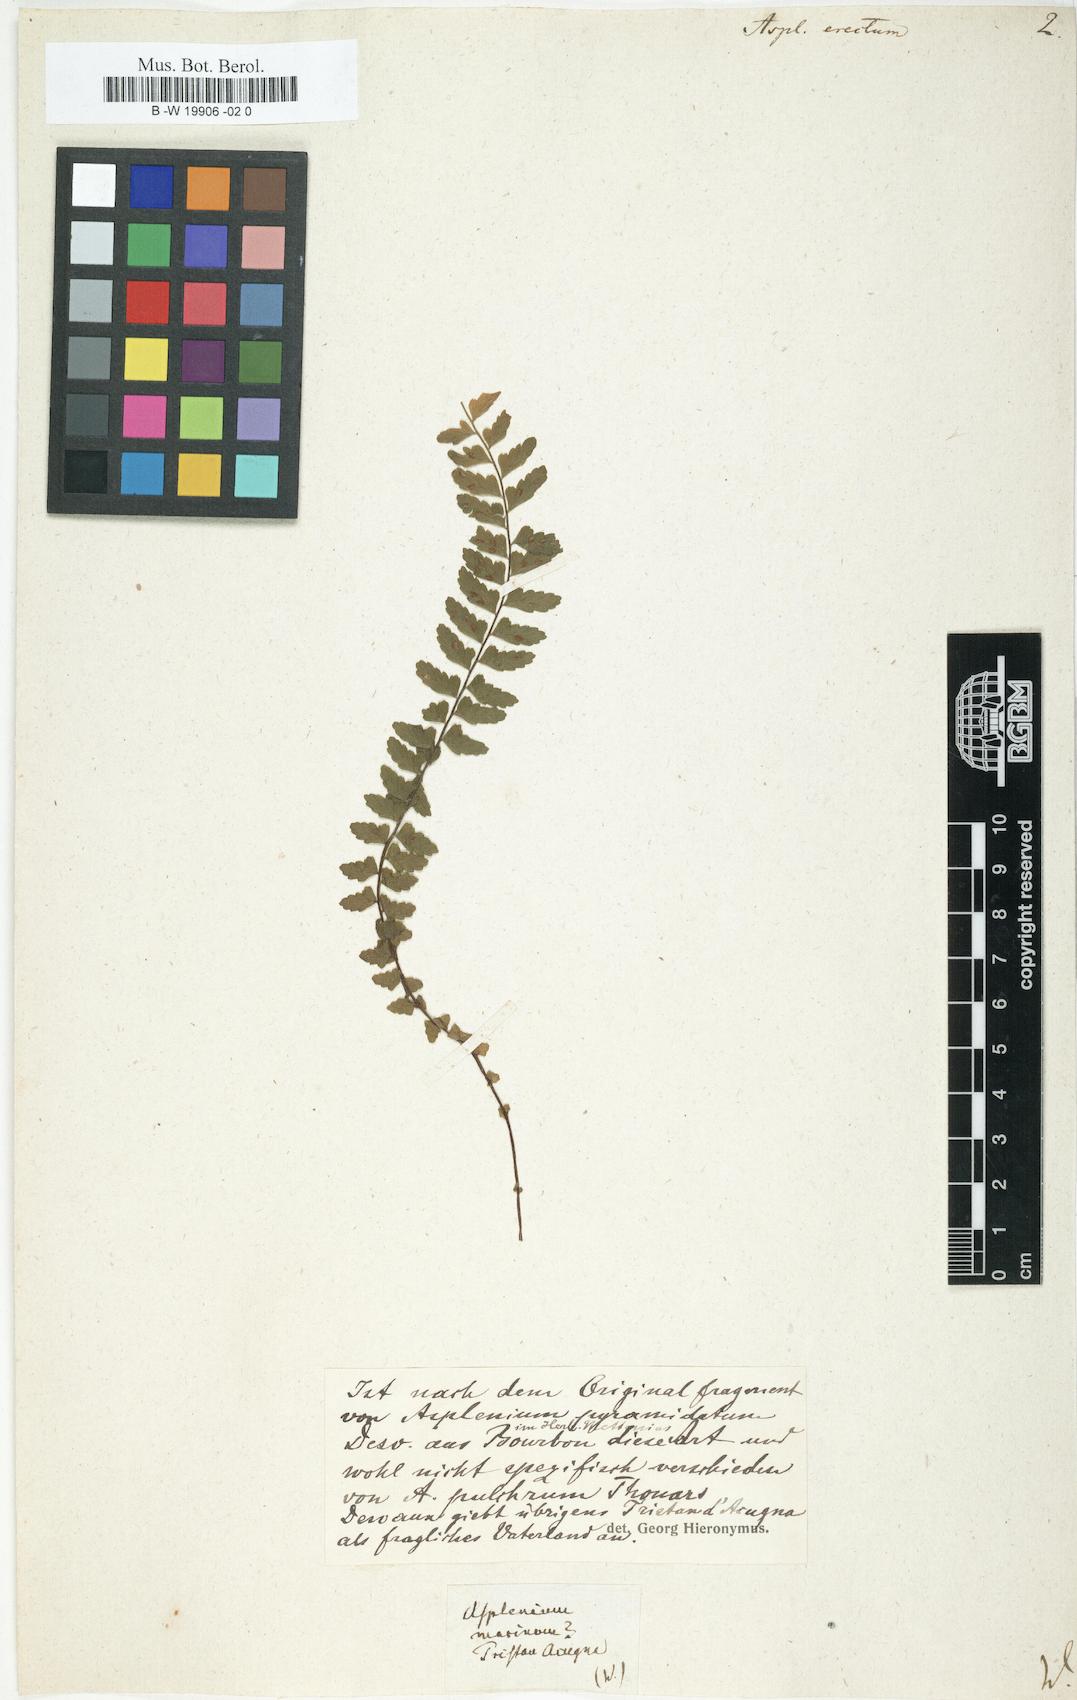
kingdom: Plantae
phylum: Tracheophyta
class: Polypodiopsida
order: Polypodiales
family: Aspleniaceae
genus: Asplenium
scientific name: Asplenium erectum
